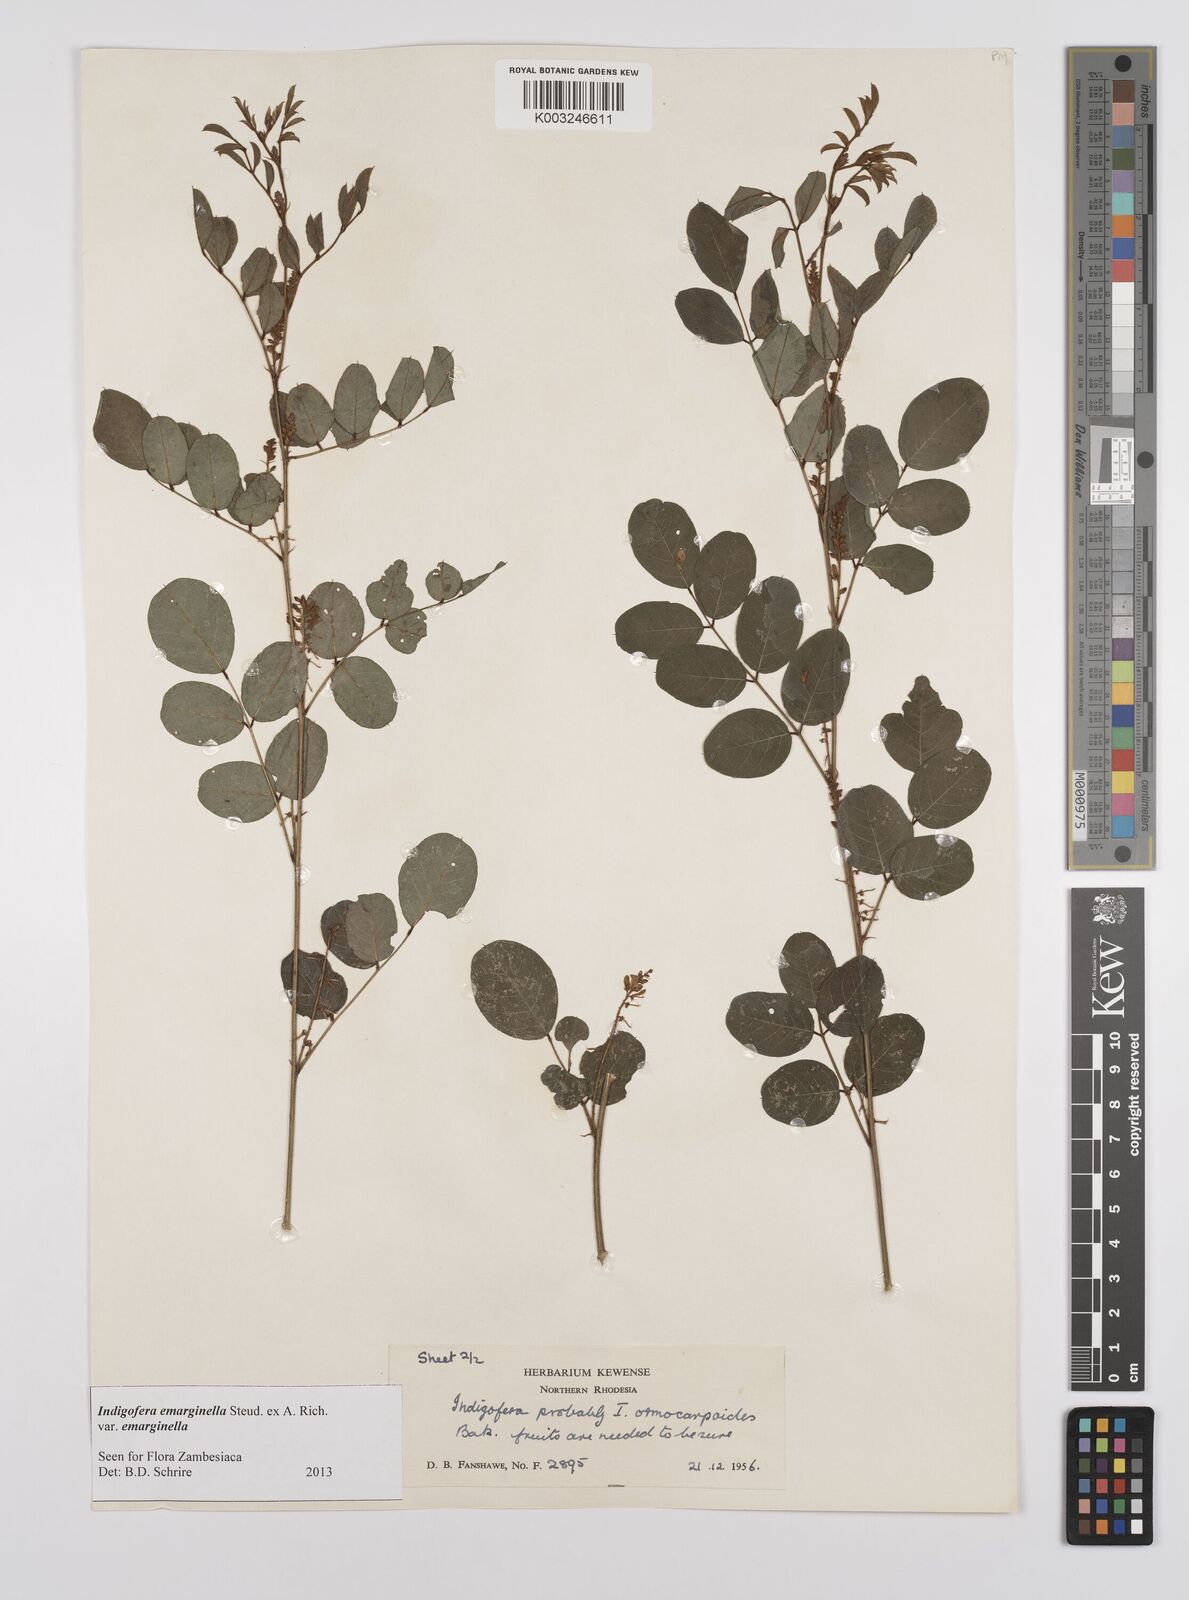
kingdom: Plantae
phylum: Tracheophyta
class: Magnoliopsida
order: Fabales
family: Fabaceae
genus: Indigofera
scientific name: Indigofera emarginella
